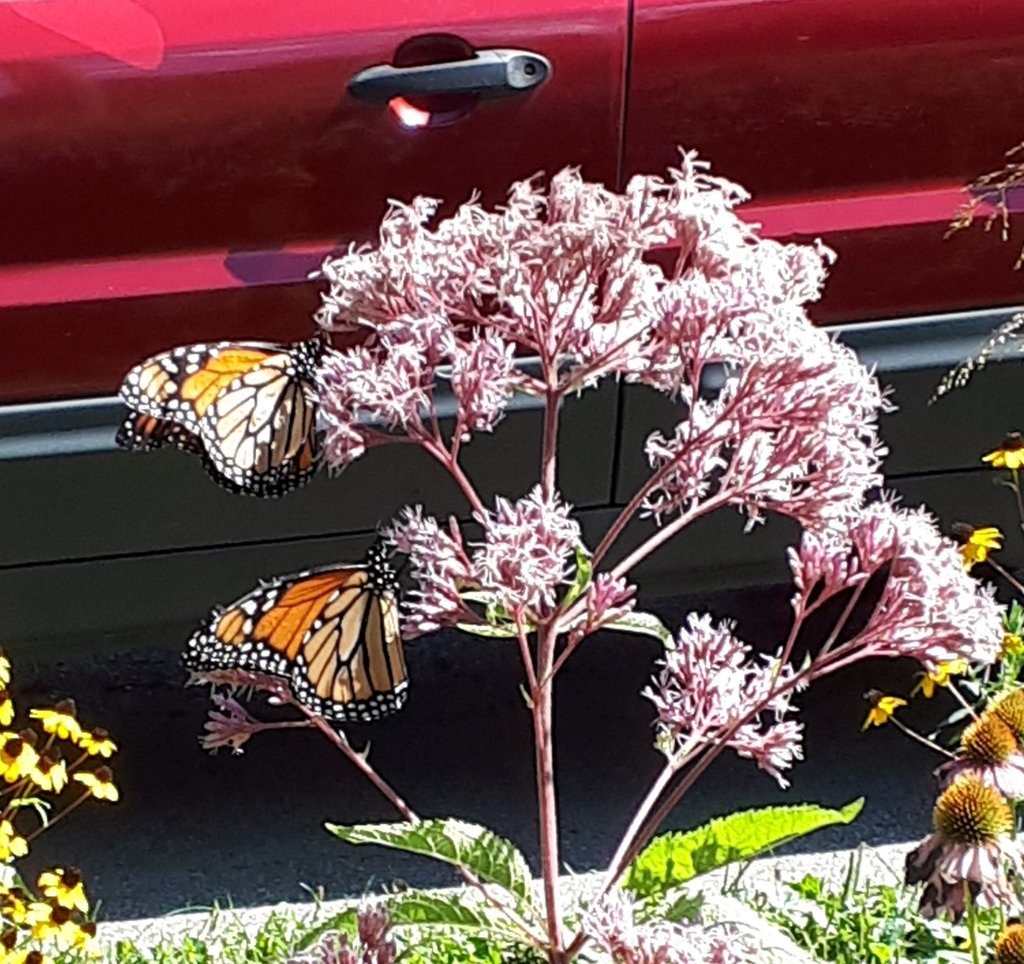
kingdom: Animalia
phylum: Arthropoda
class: Insecta
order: Lepidoptera
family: Nymphalidae
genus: Danaus
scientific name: Danaus plexippus
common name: Monarch
